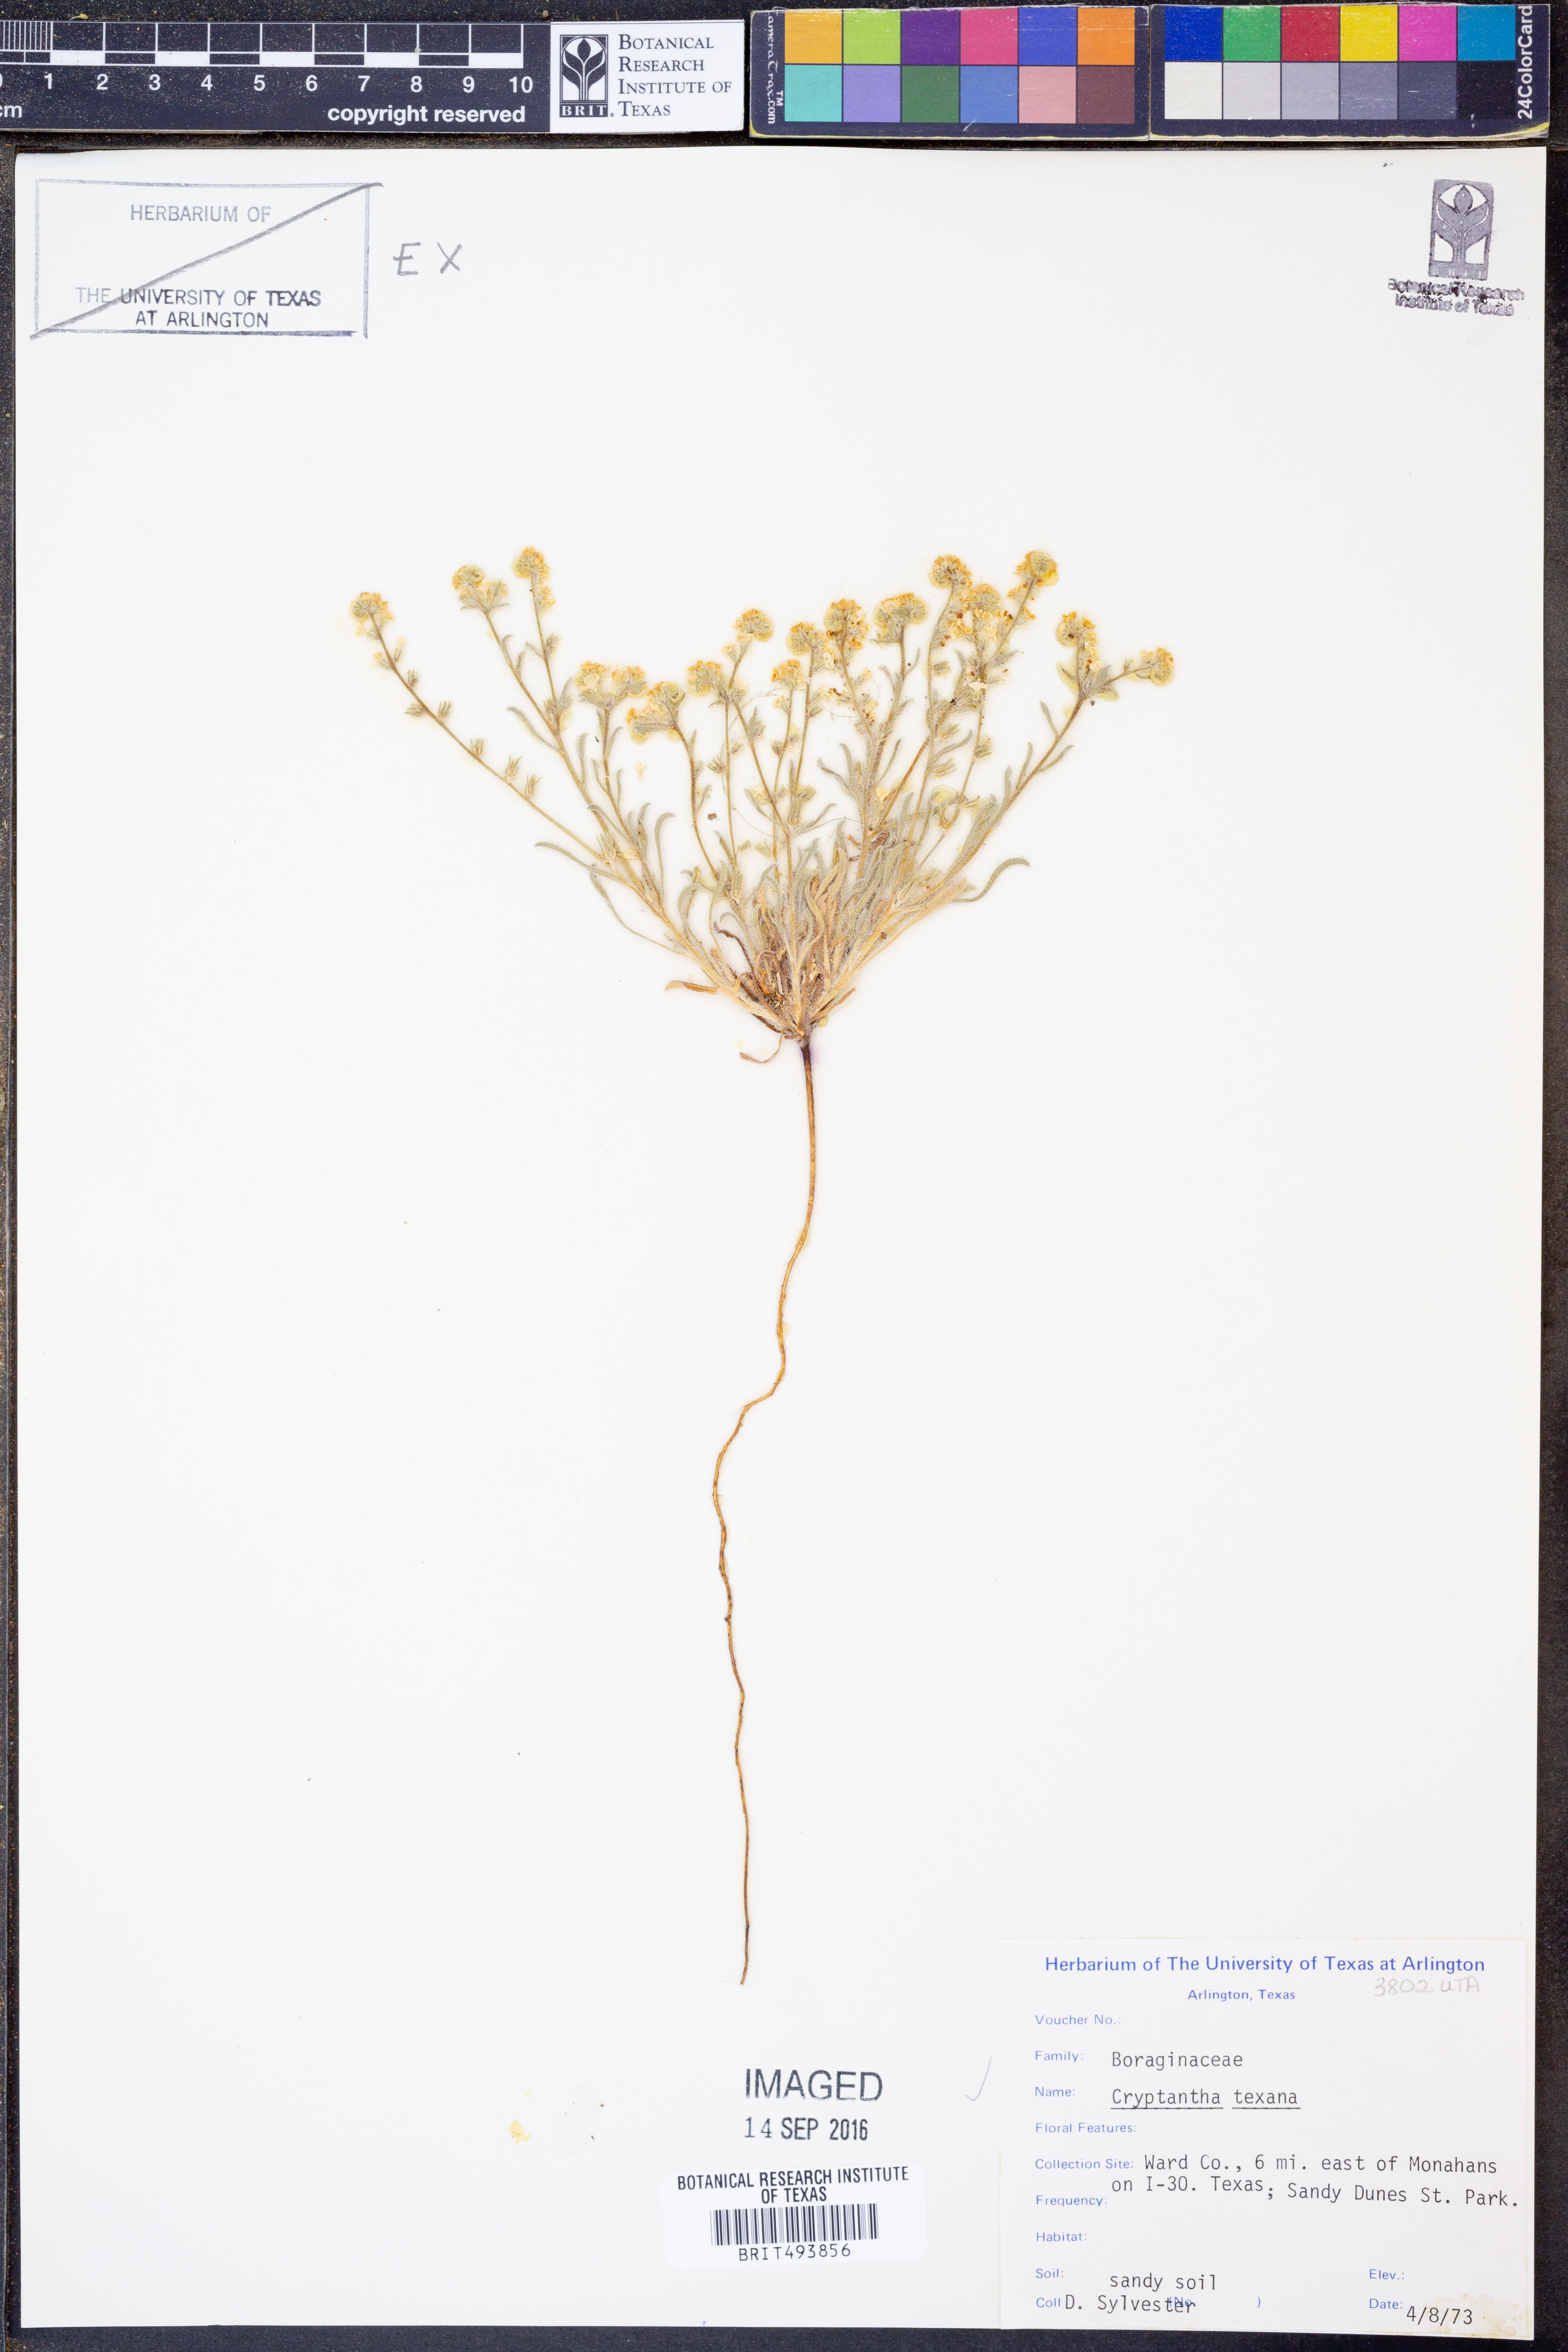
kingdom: Plantae
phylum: Tracheophyta
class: Magnoliopsida
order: Boraginales
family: Boraginaceae
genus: Cryptantha
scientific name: Cryptantha texana
